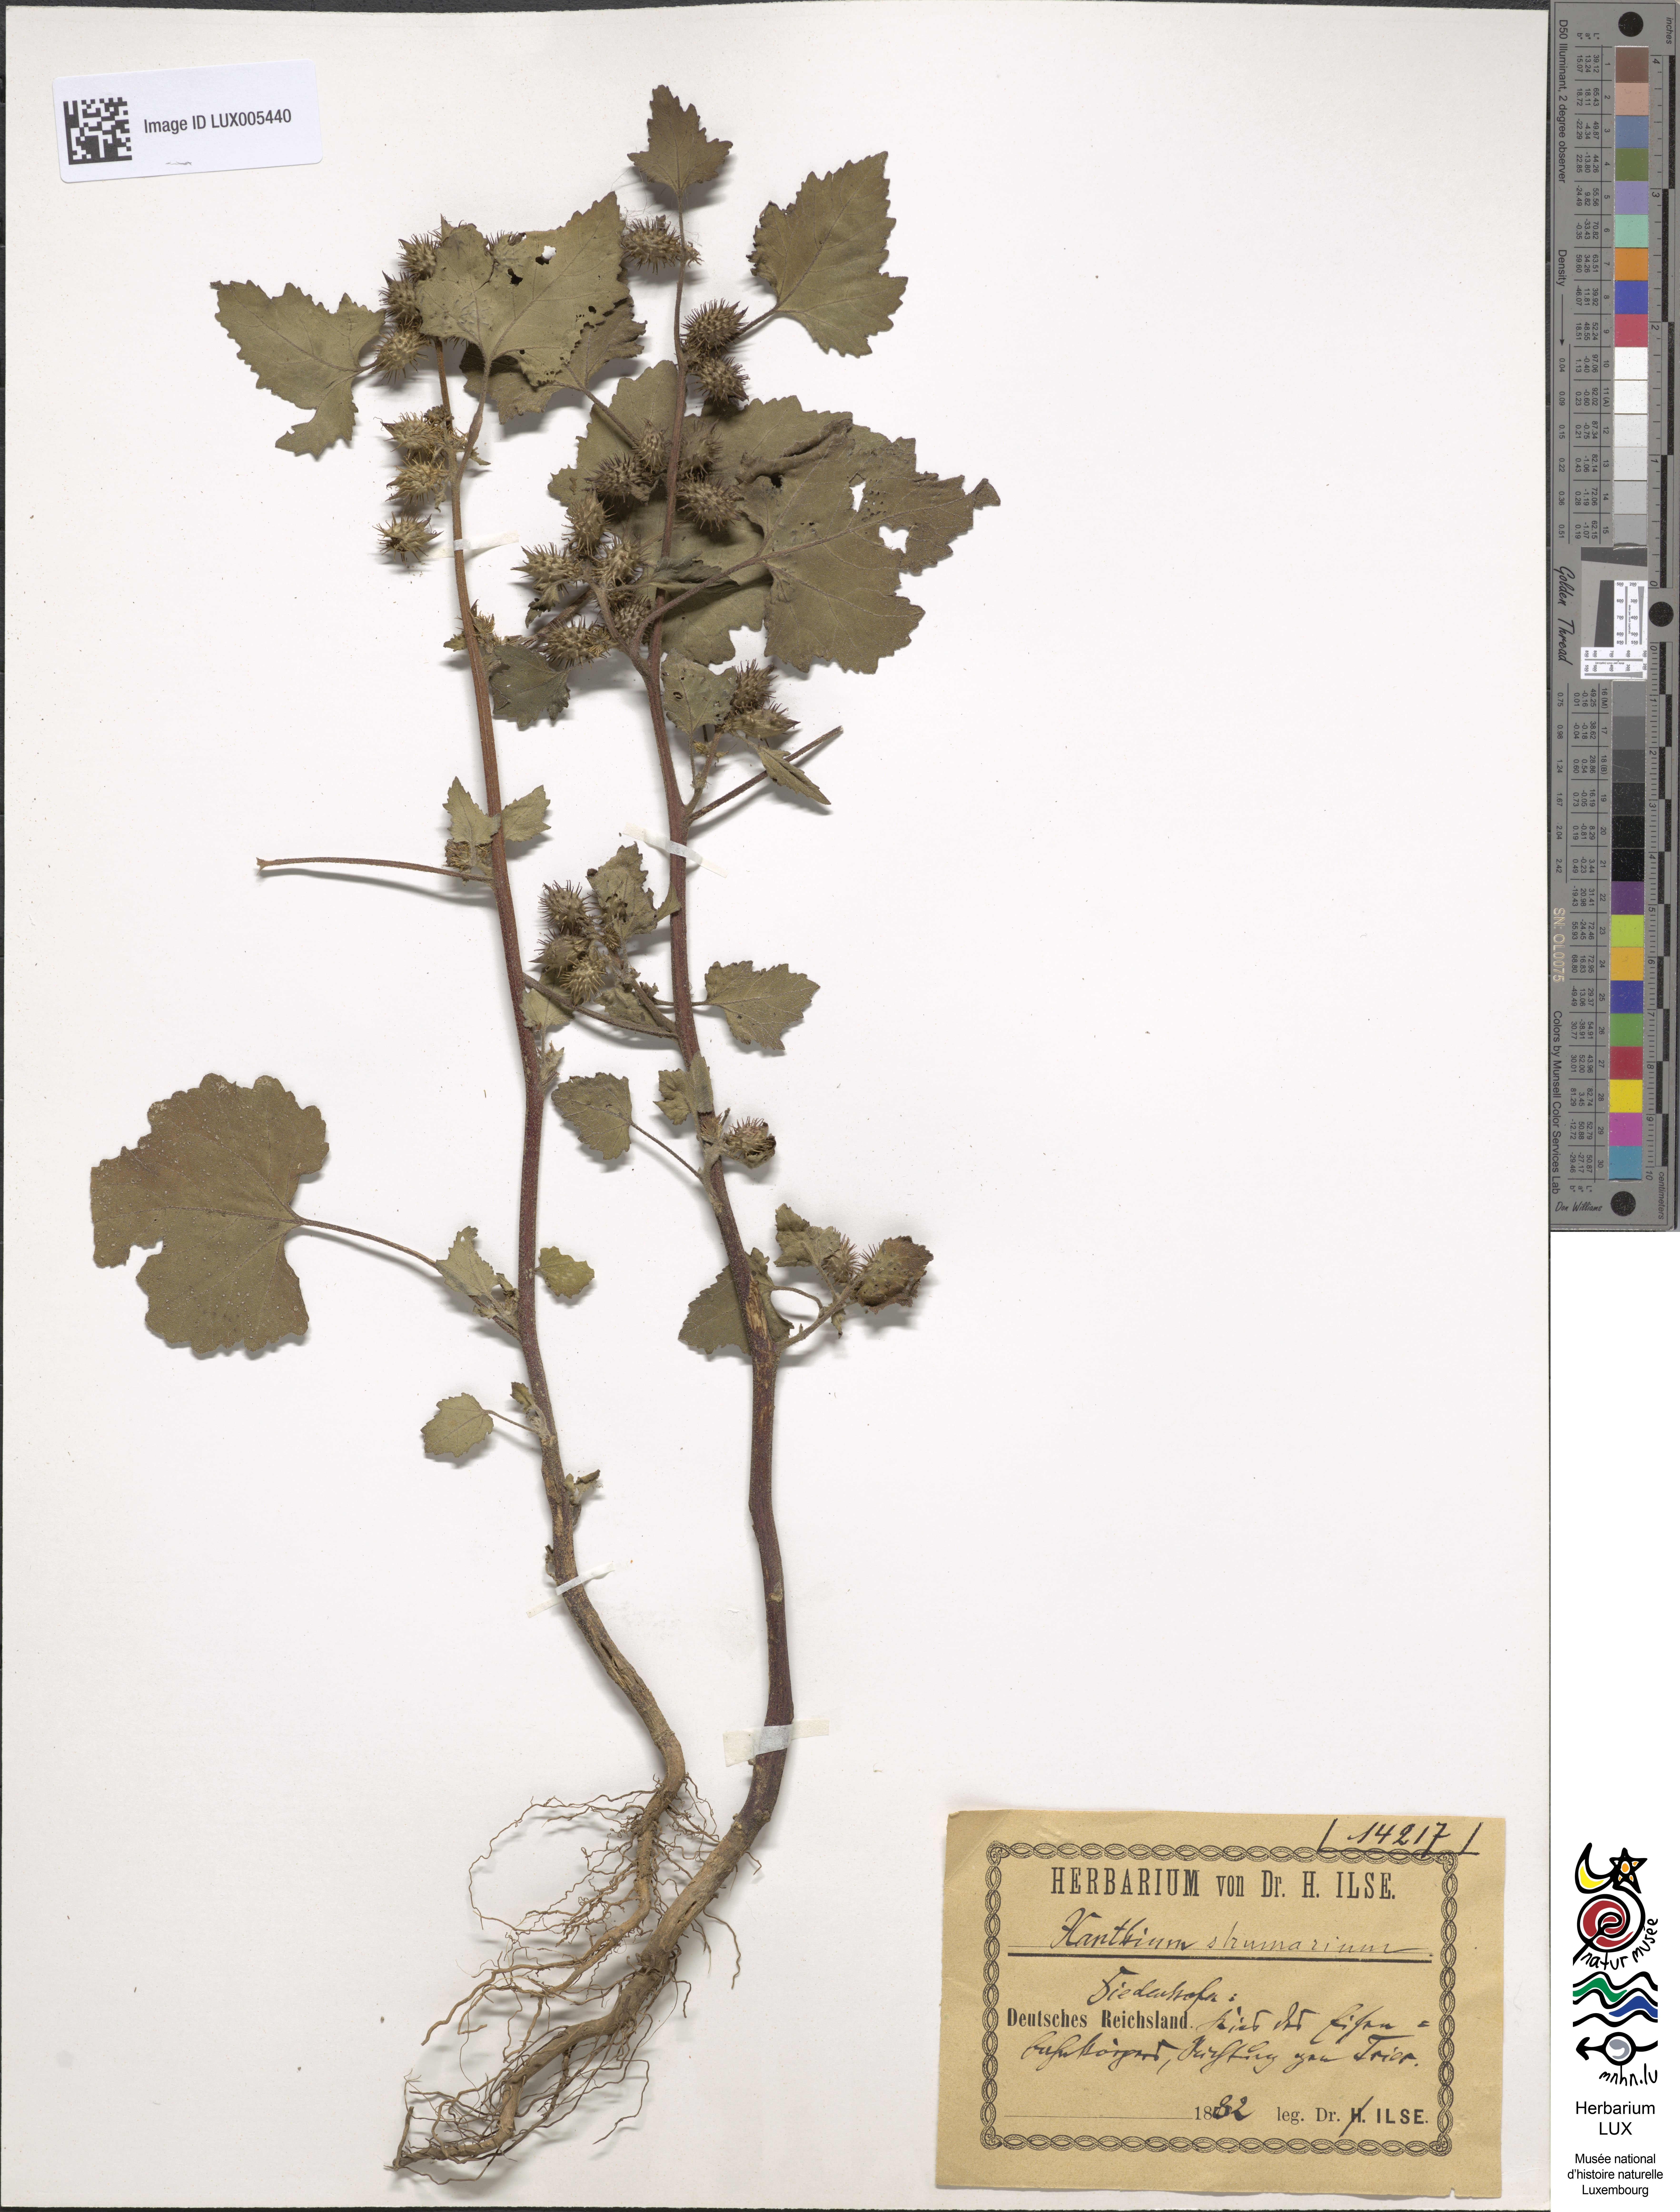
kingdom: Plantae
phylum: Tracheophyta
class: Magnoliopsida
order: Asterales
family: Asteraceae
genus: Xanthium
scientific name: Xanthium strumarium
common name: Rough cocklebur
